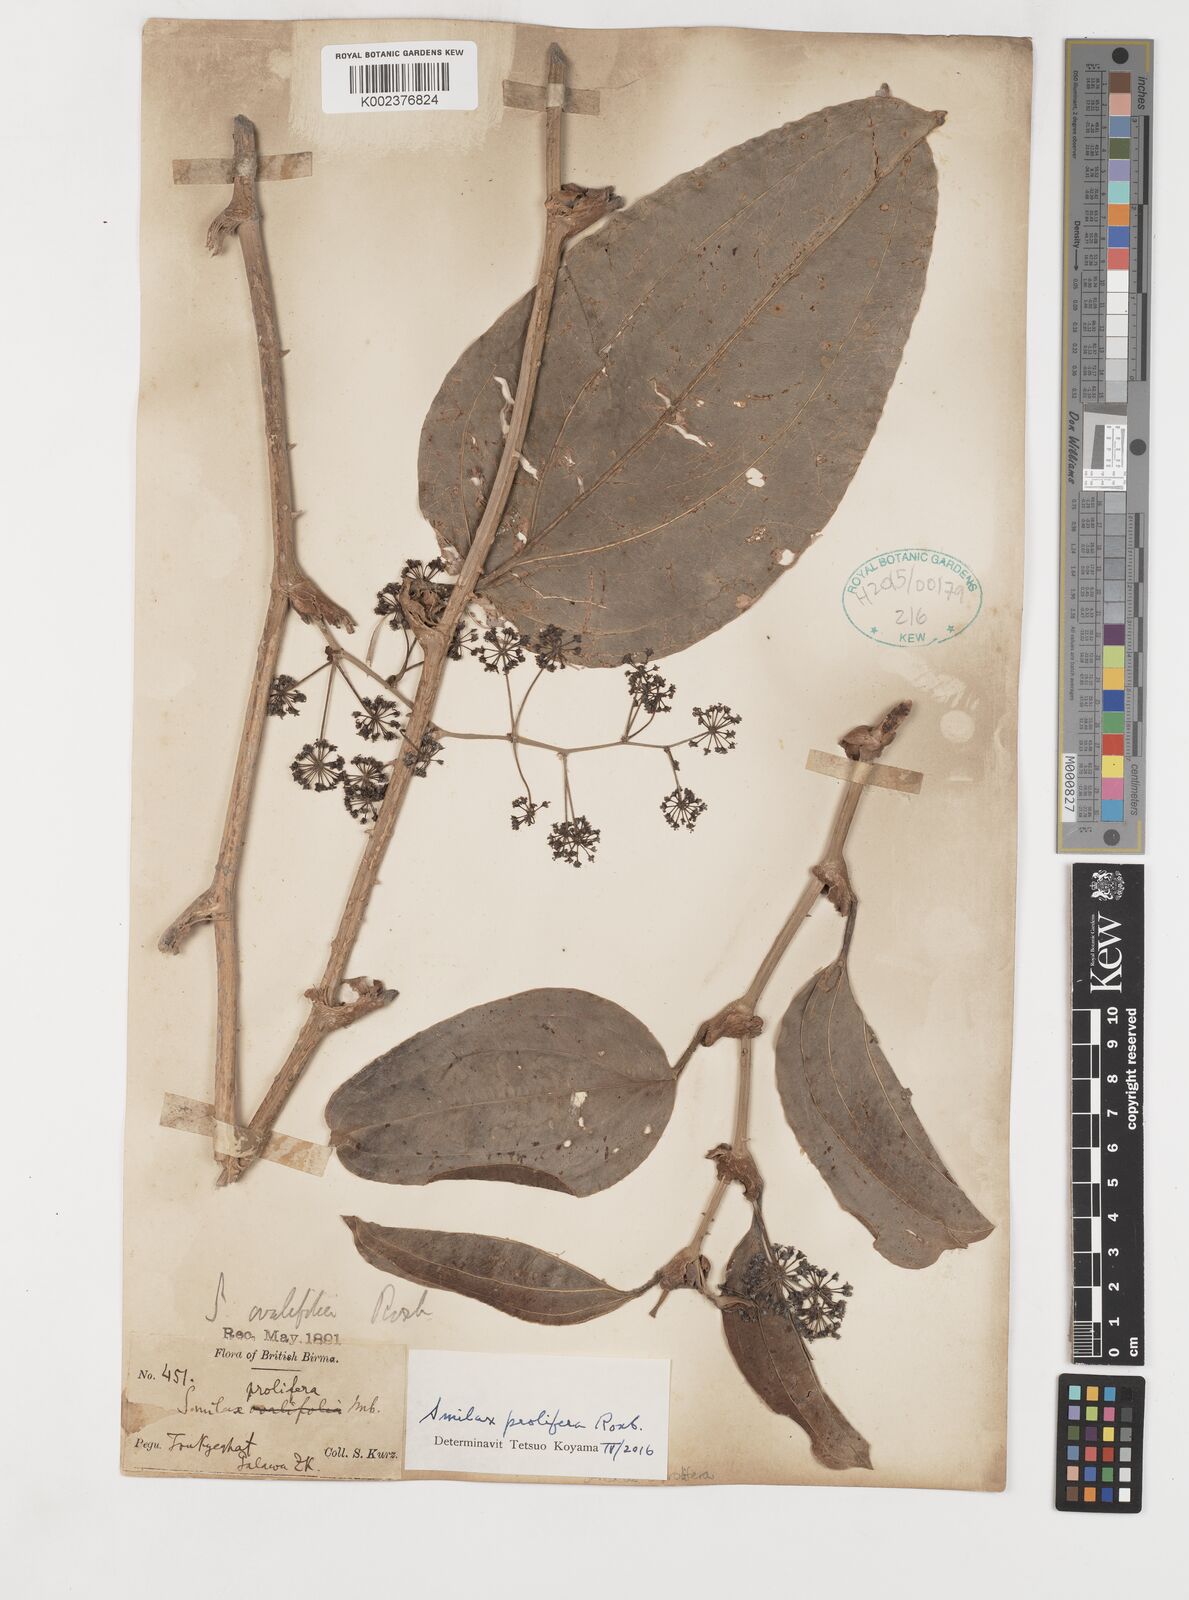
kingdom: Plantae
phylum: Tracheophyta
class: Liliopsida
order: Liliales
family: Smilacaceae
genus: Smilax
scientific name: Smilax prolifera
